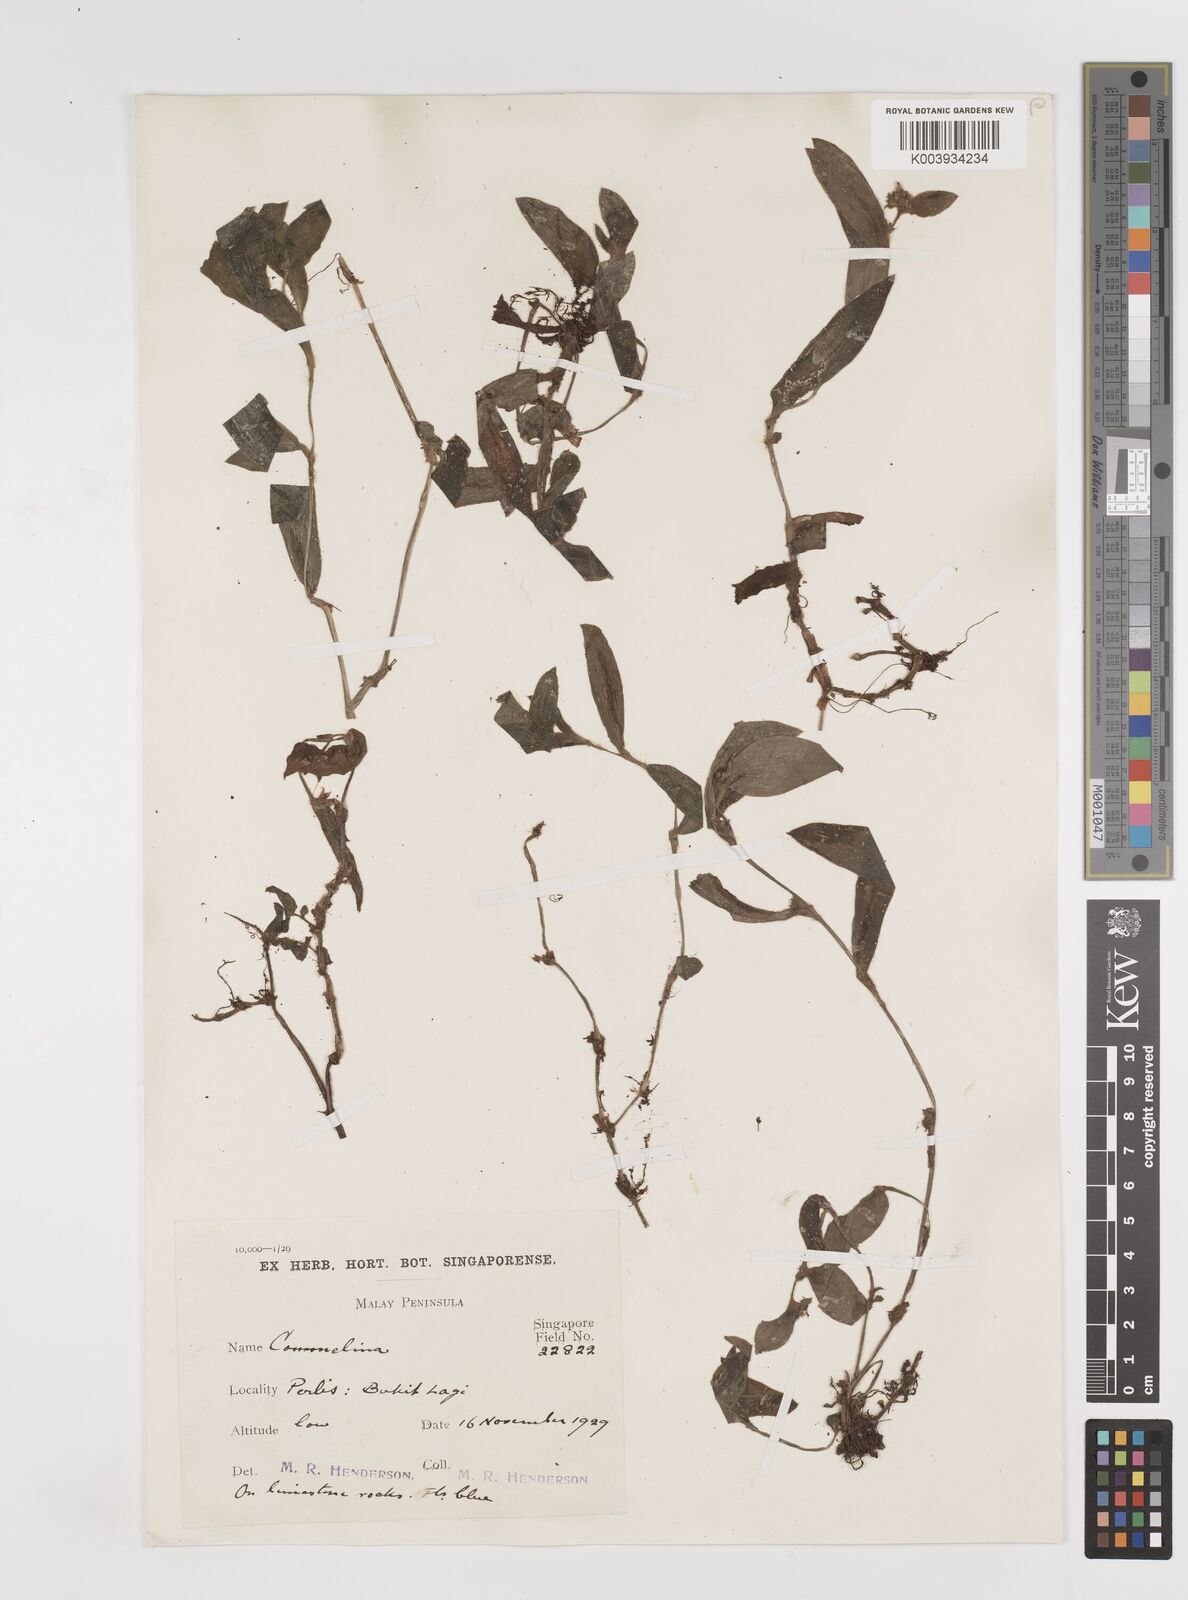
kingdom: Plantae
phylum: Tracheophyta
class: Liliopsida
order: Commelinales
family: Commelinaceae
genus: Cyanotis
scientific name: Cyanotis
